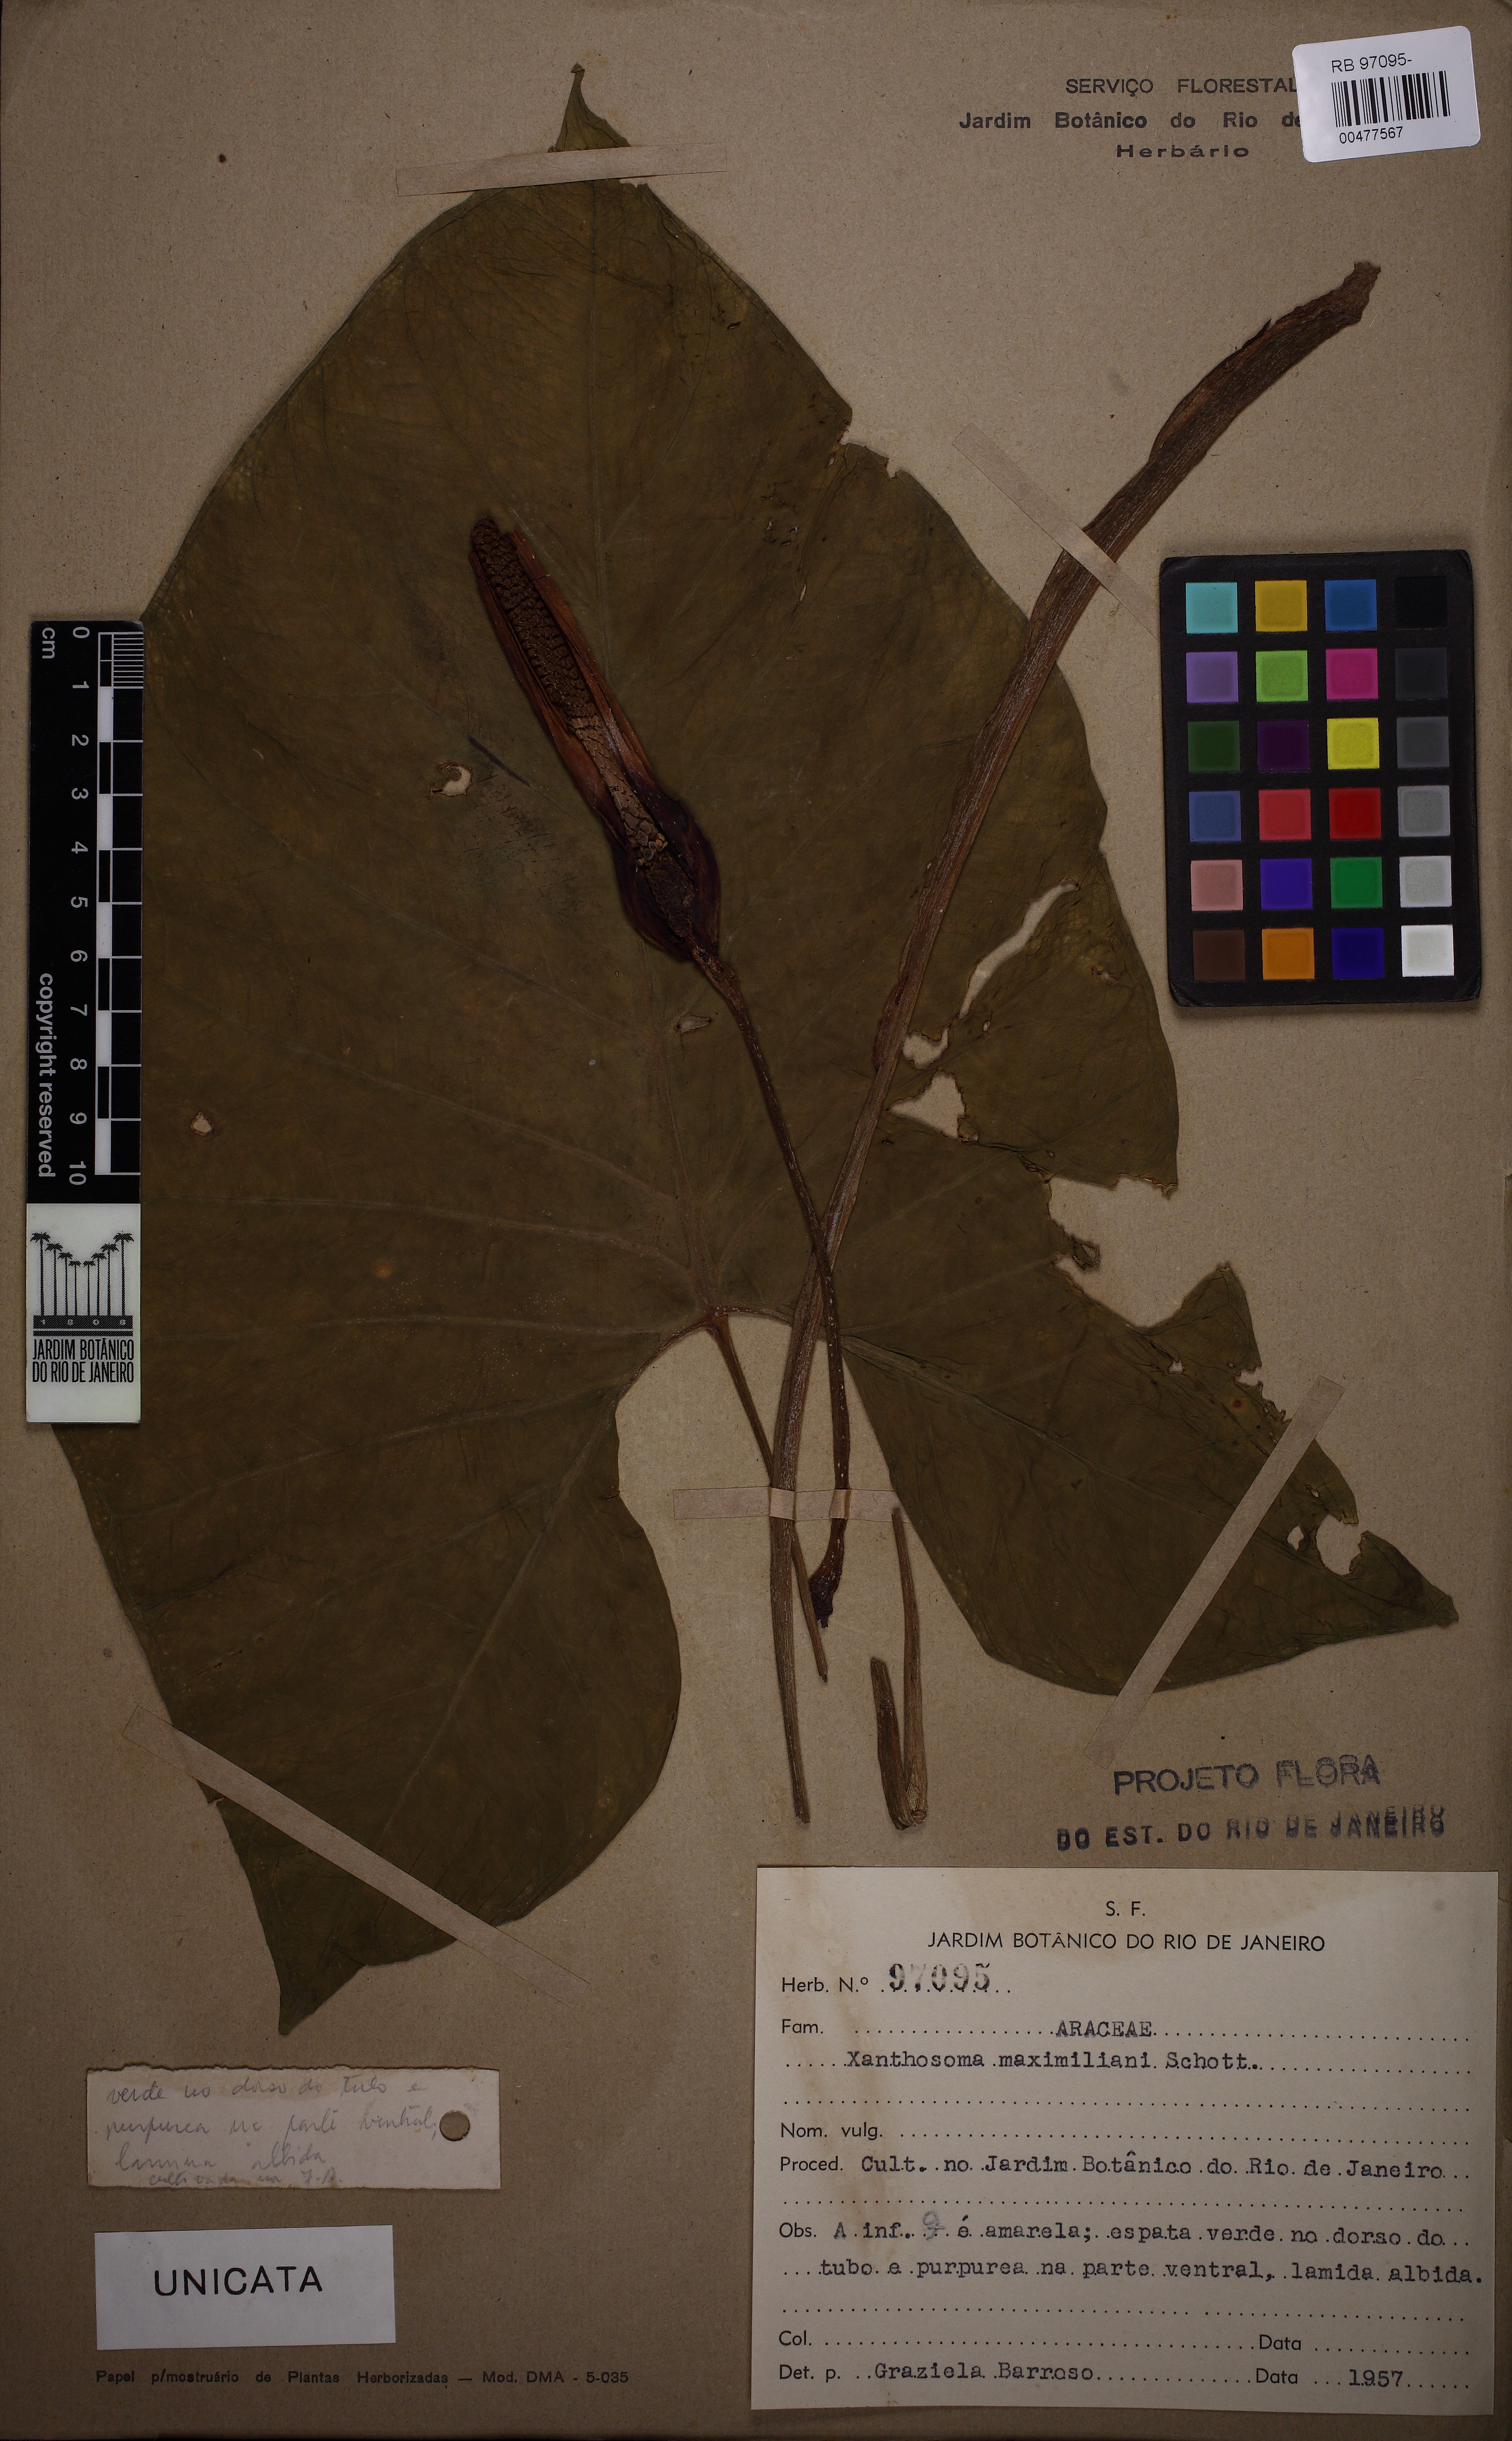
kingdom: Plantae
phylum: Tracheophyta
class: Liliopsida
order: Alismatales
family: Araceae
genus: Xanthosoma
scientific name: Xanthosoma maximiliani
